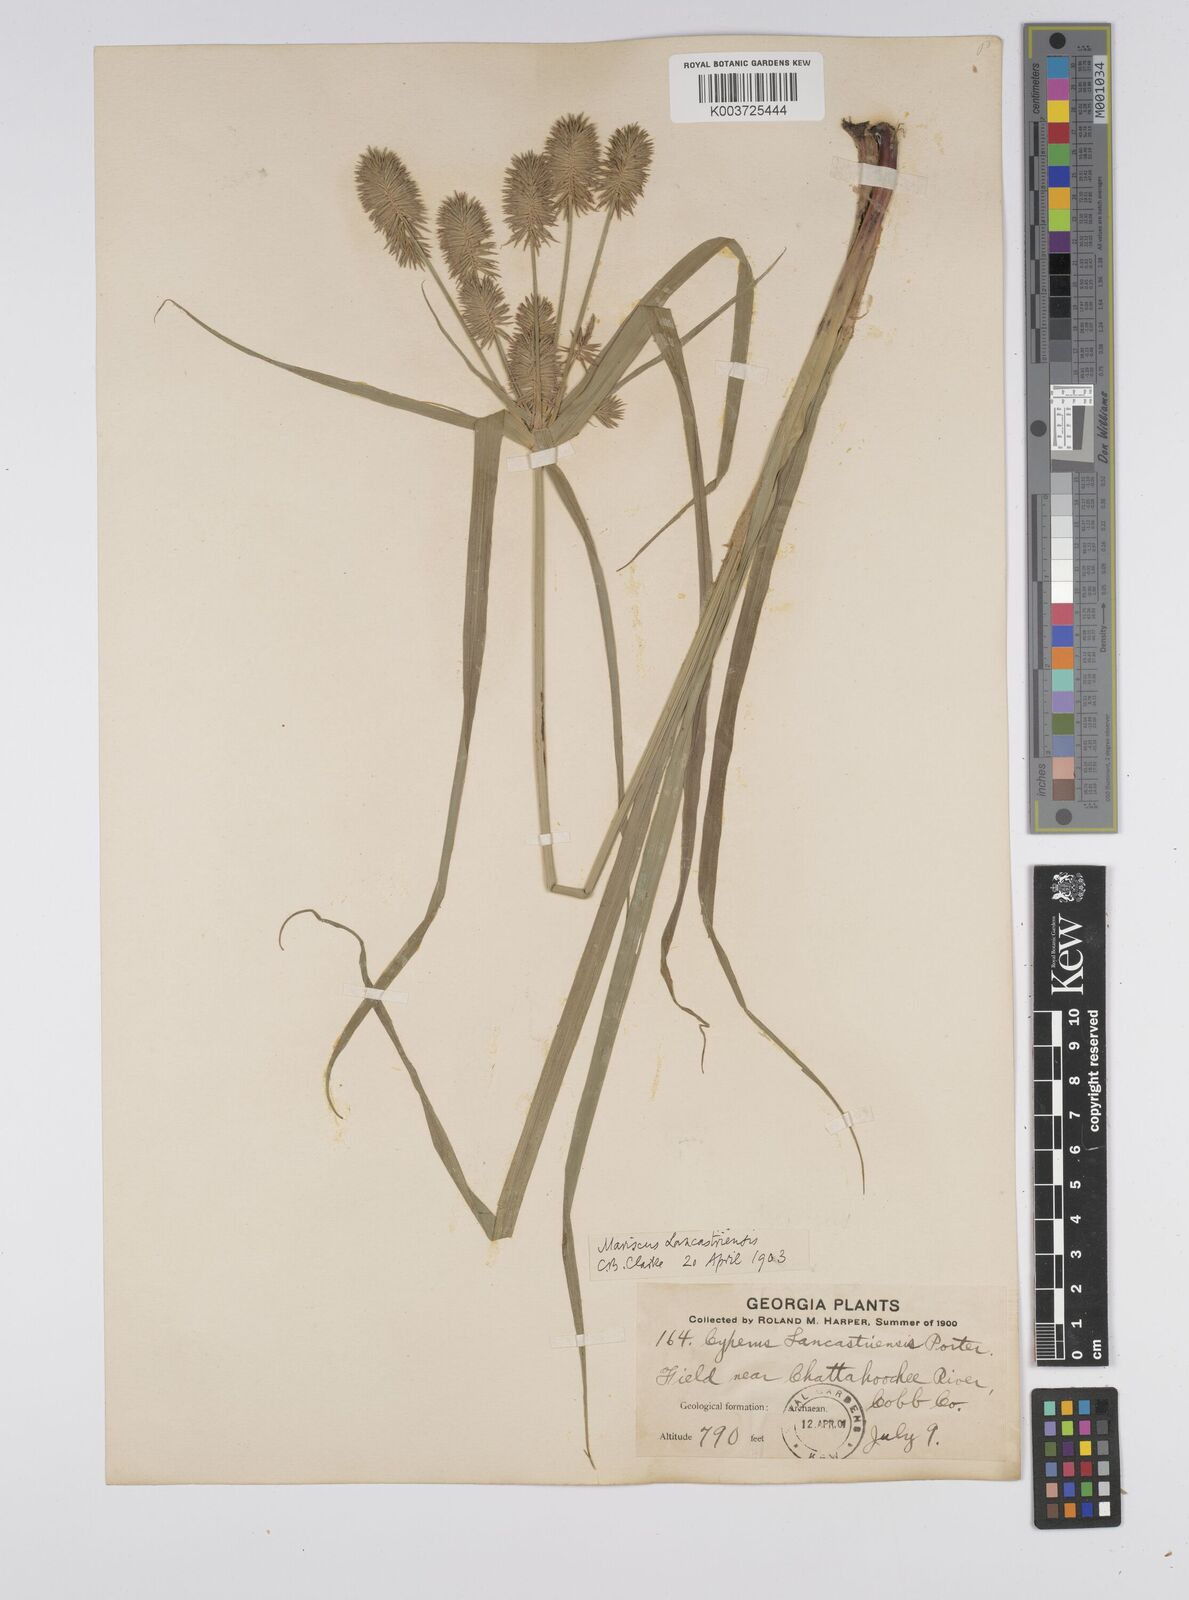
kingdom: Plantae
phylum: Tracheophyta
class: Liliopsida
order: Poales
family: Cyperaceae
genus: Cyperus
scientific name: Cyperus lancastriensis
